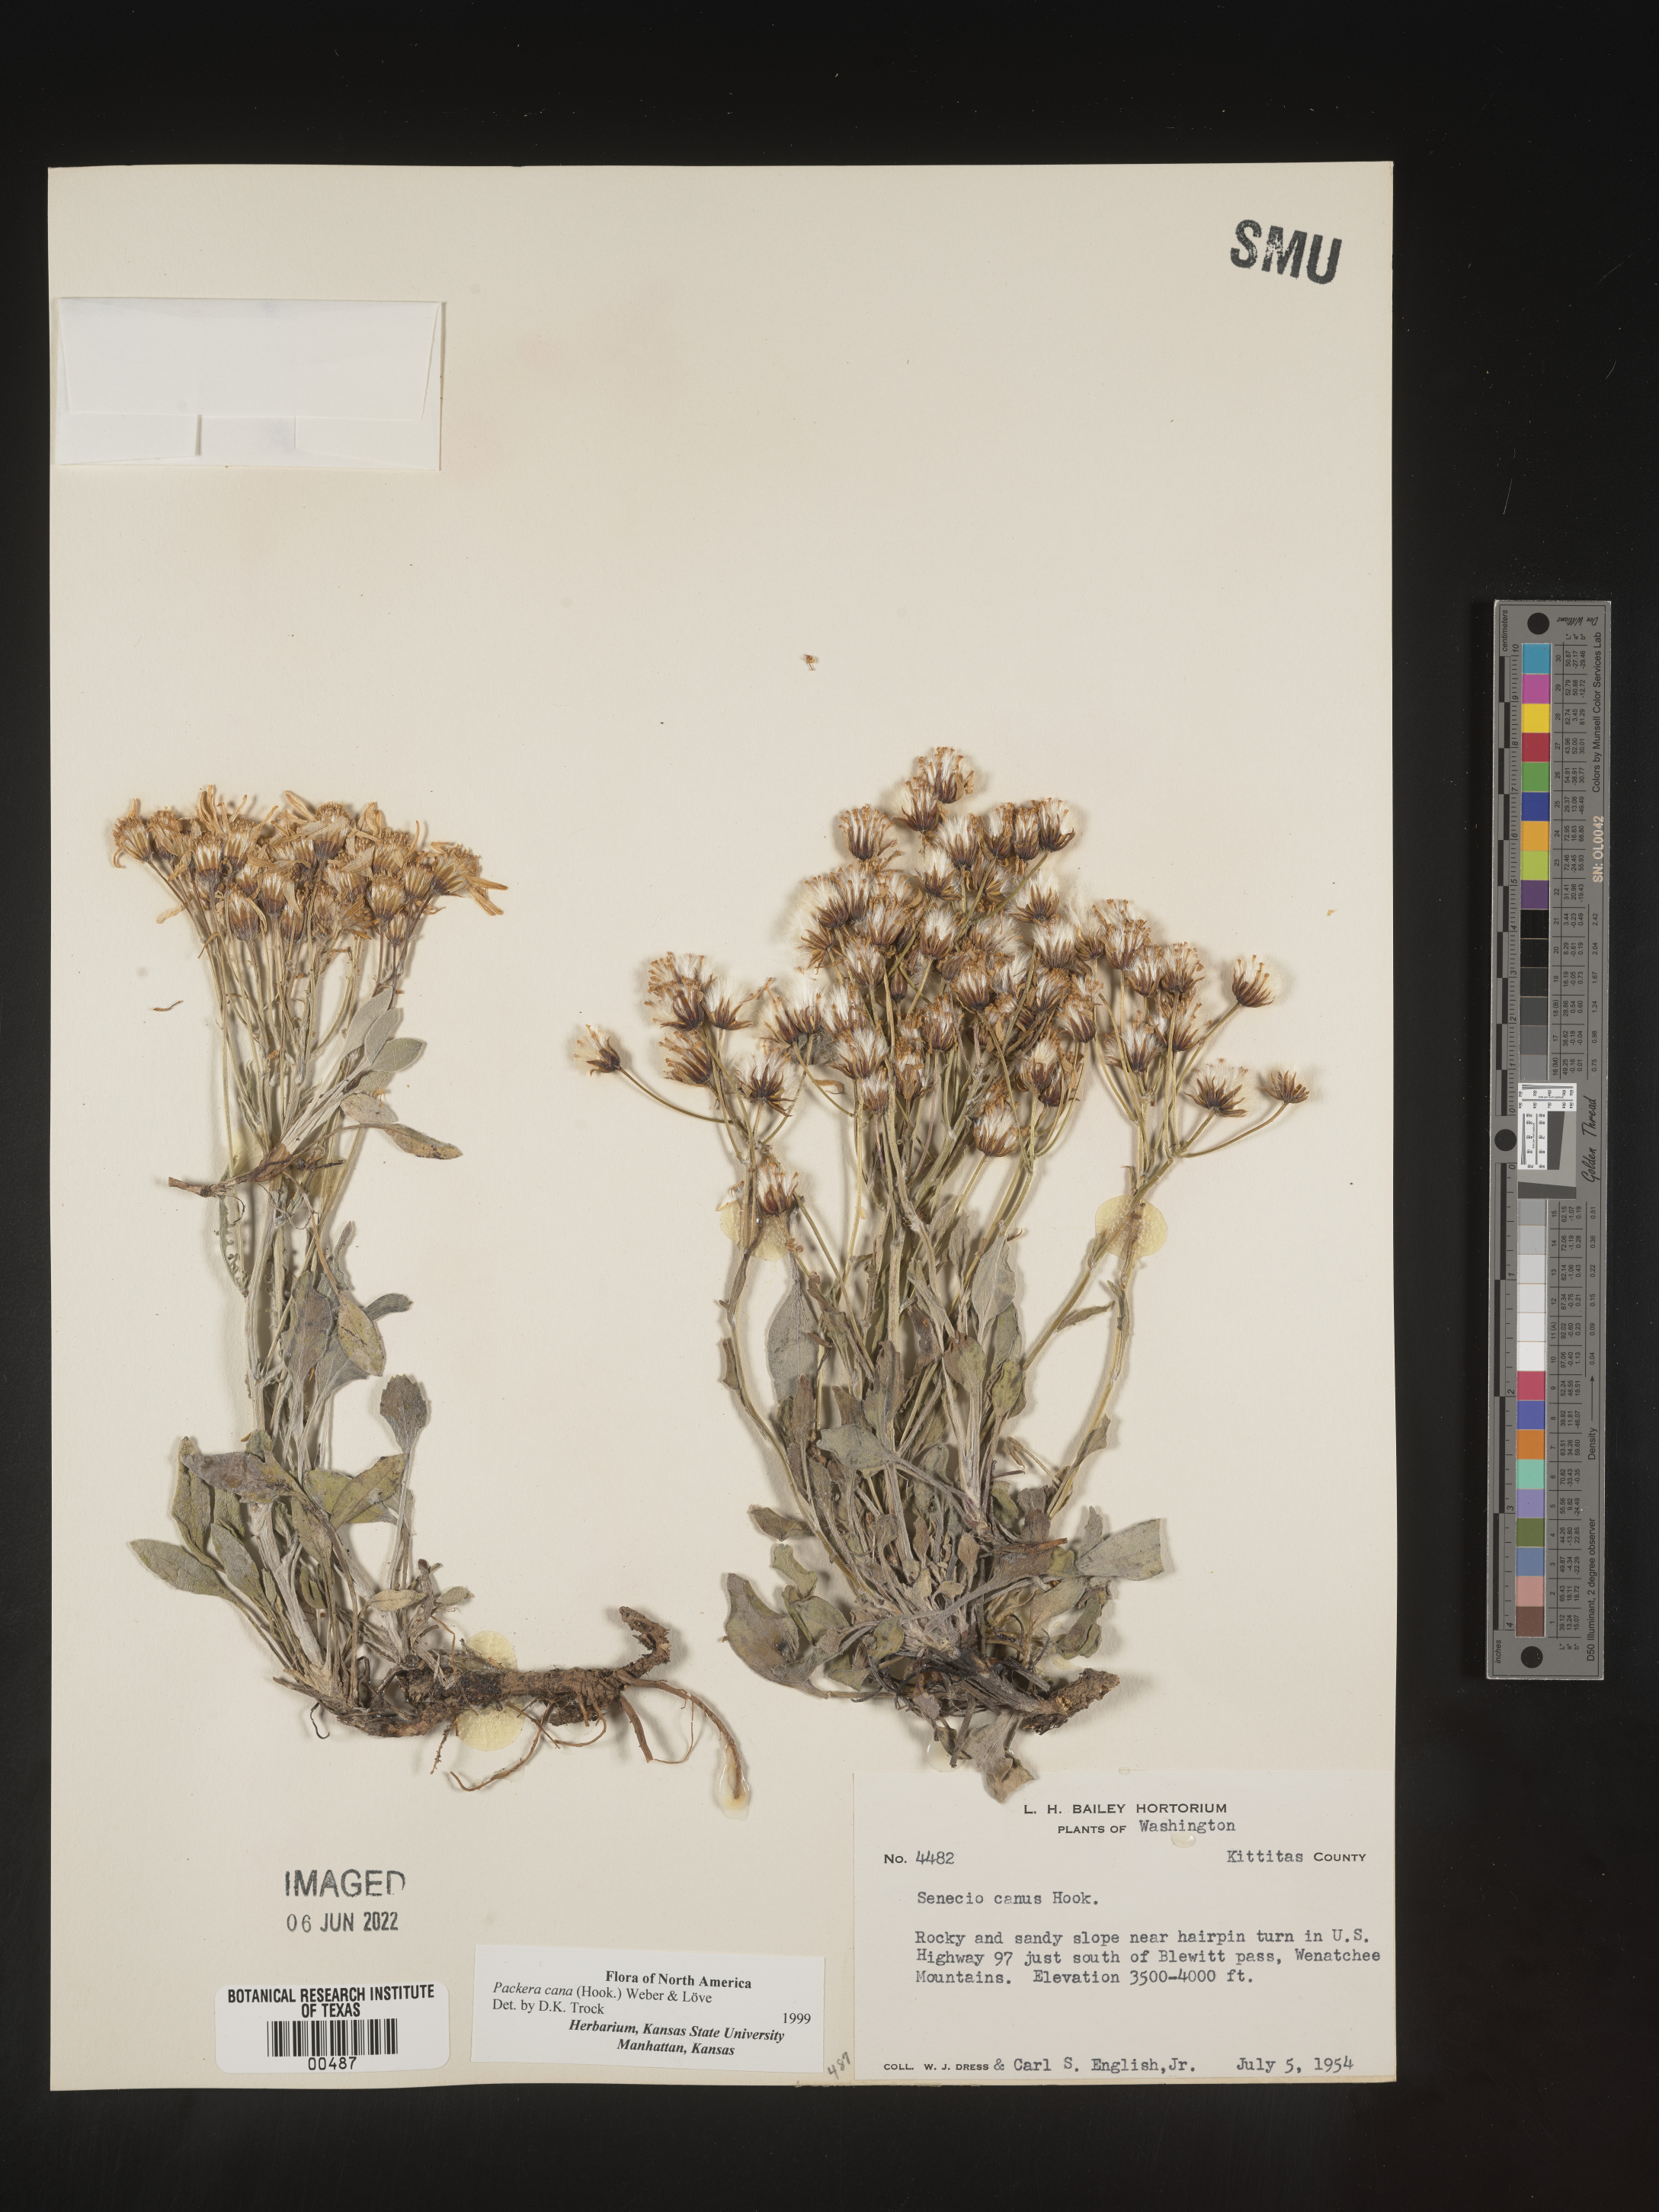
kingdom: Plantae
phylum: Tracheophyta
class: Magnoliopsida
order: Asterales
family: Asteraceae
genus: Packera
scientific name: Packera cana
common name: Woolly groundsel
